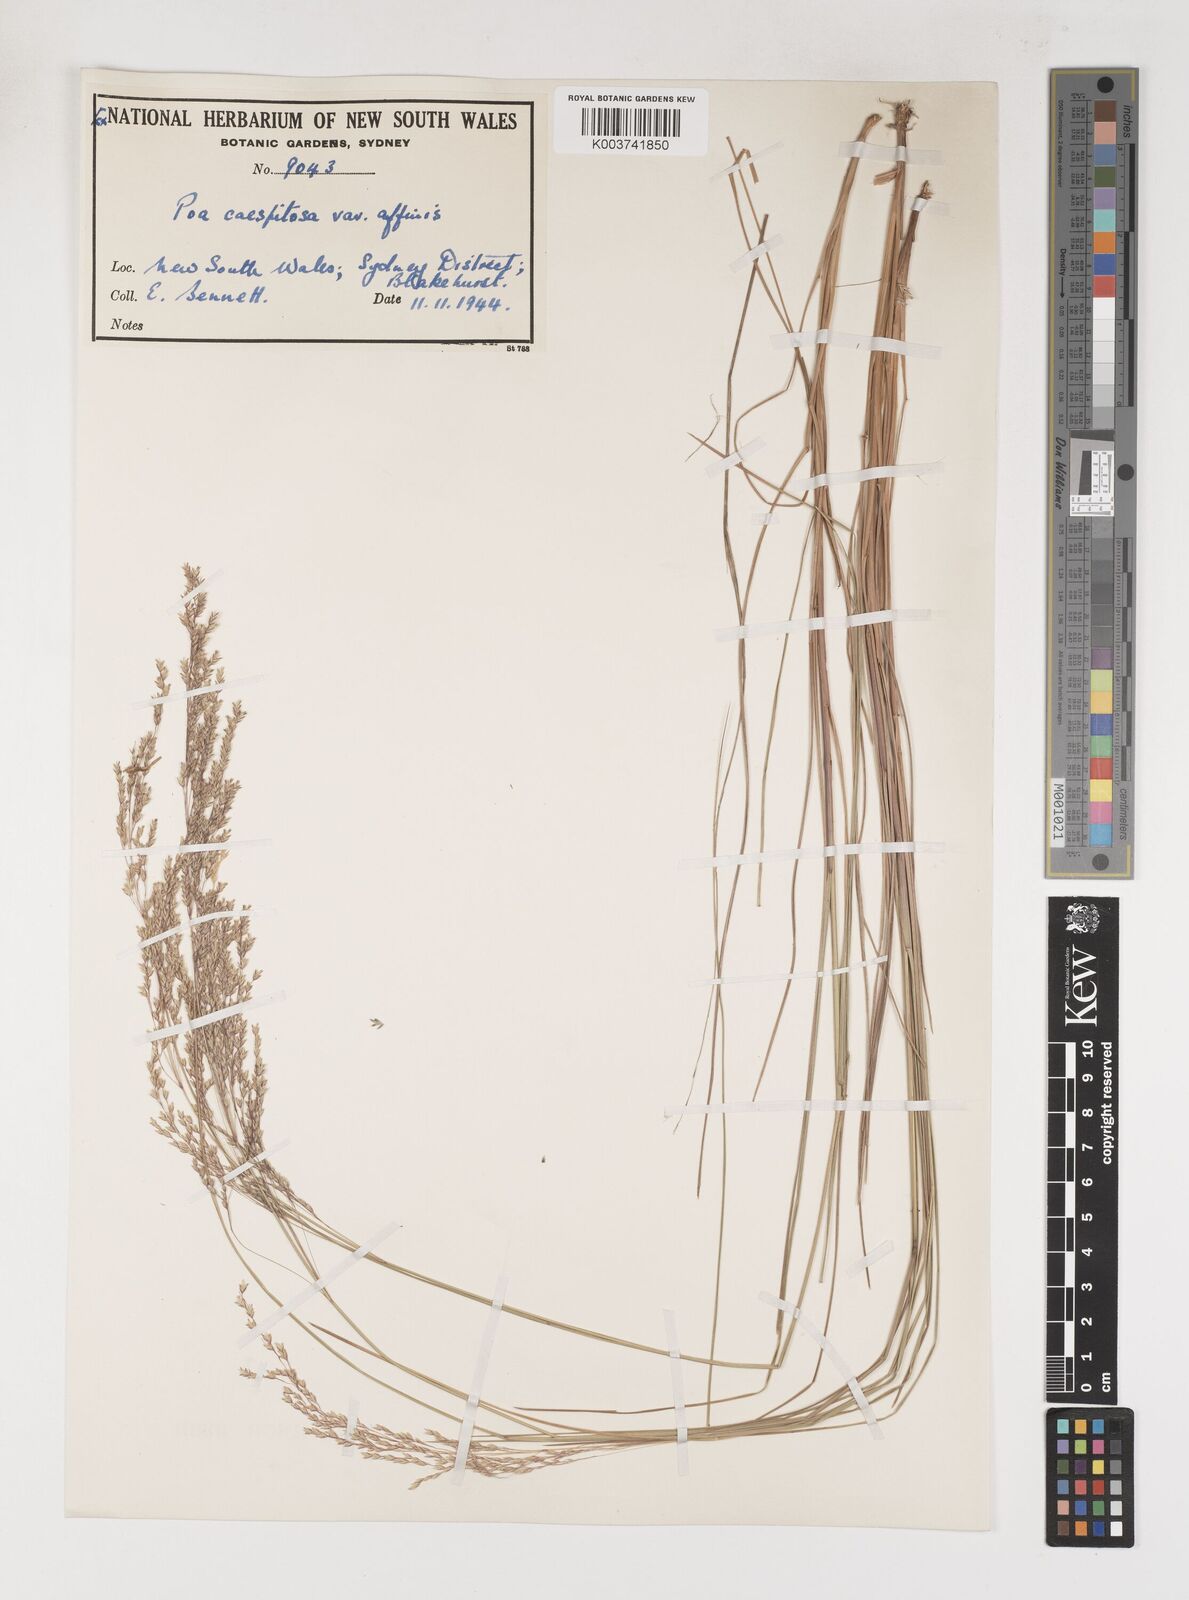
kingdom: Plantae
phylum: Tracheophyta
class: Liliopsida
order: Poales
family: Poaceae
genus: Poa
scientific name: Poa sieberiana
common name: Tussock poa
